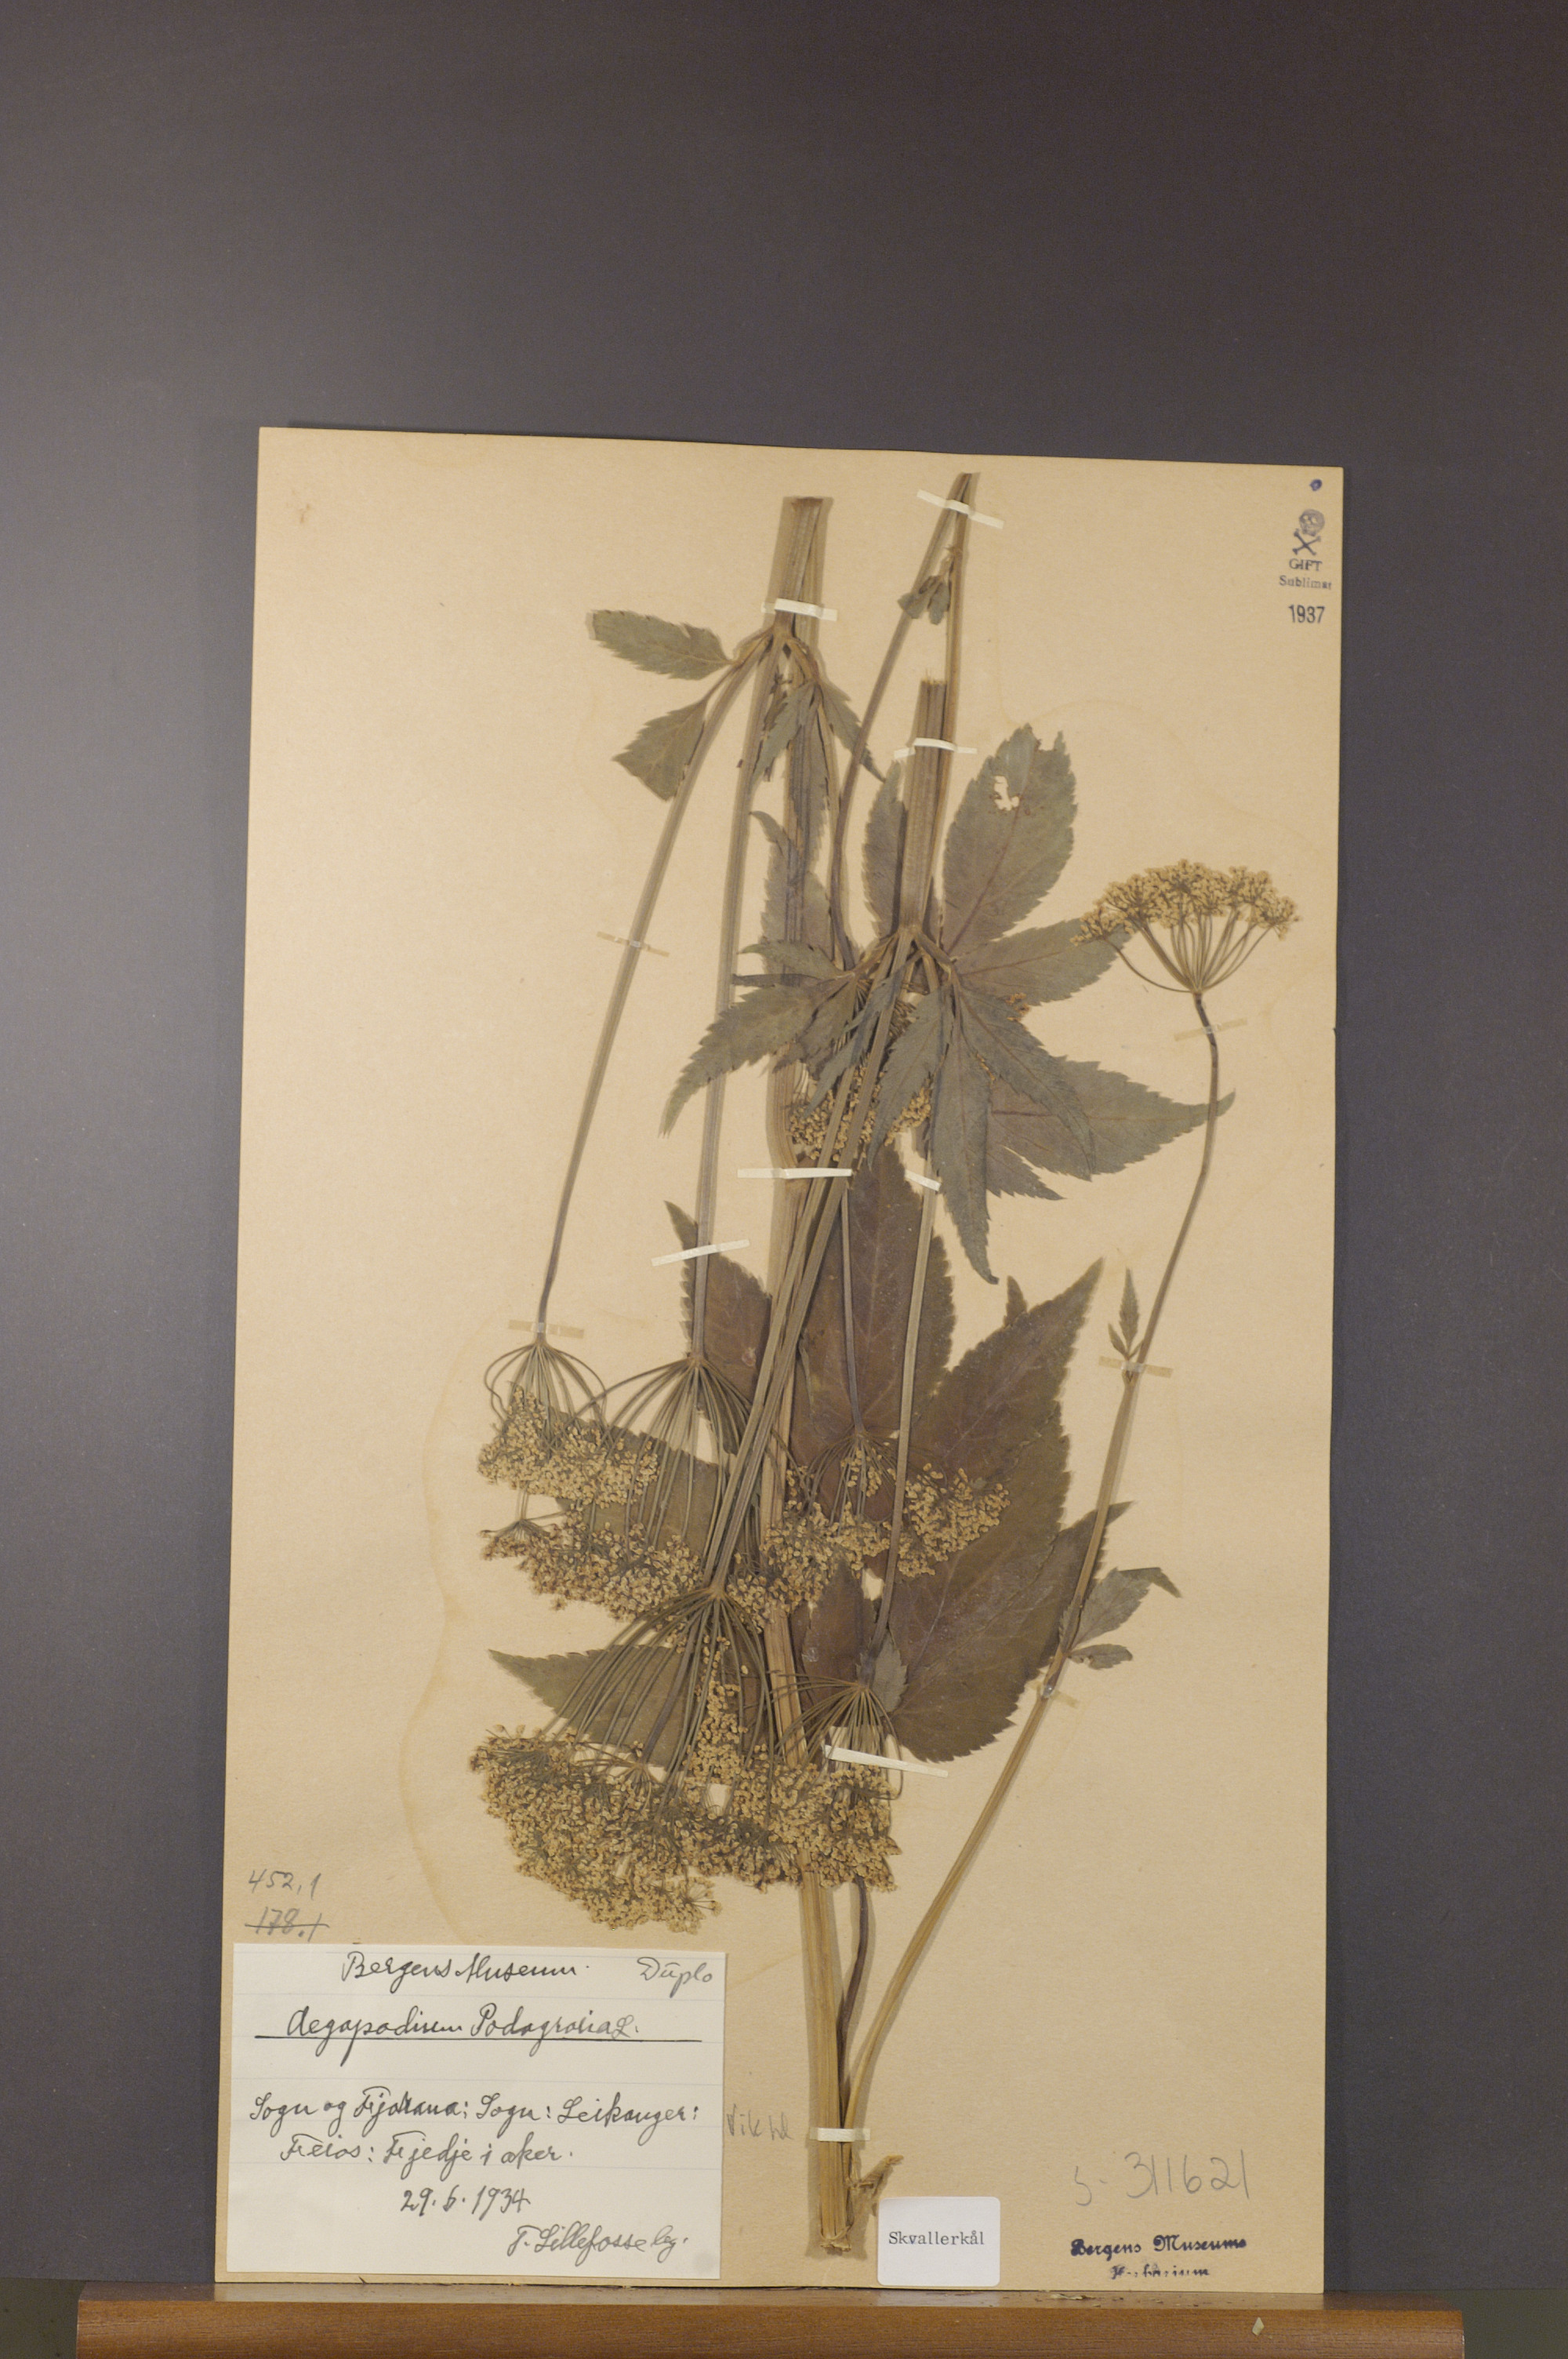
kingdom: Plantae
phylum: Tracheophyta
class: Magnoliopsida
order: Apiales
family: Apiaceae
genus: Aegopodium
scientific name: Aegopodium podagraria
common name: Ground-elder
